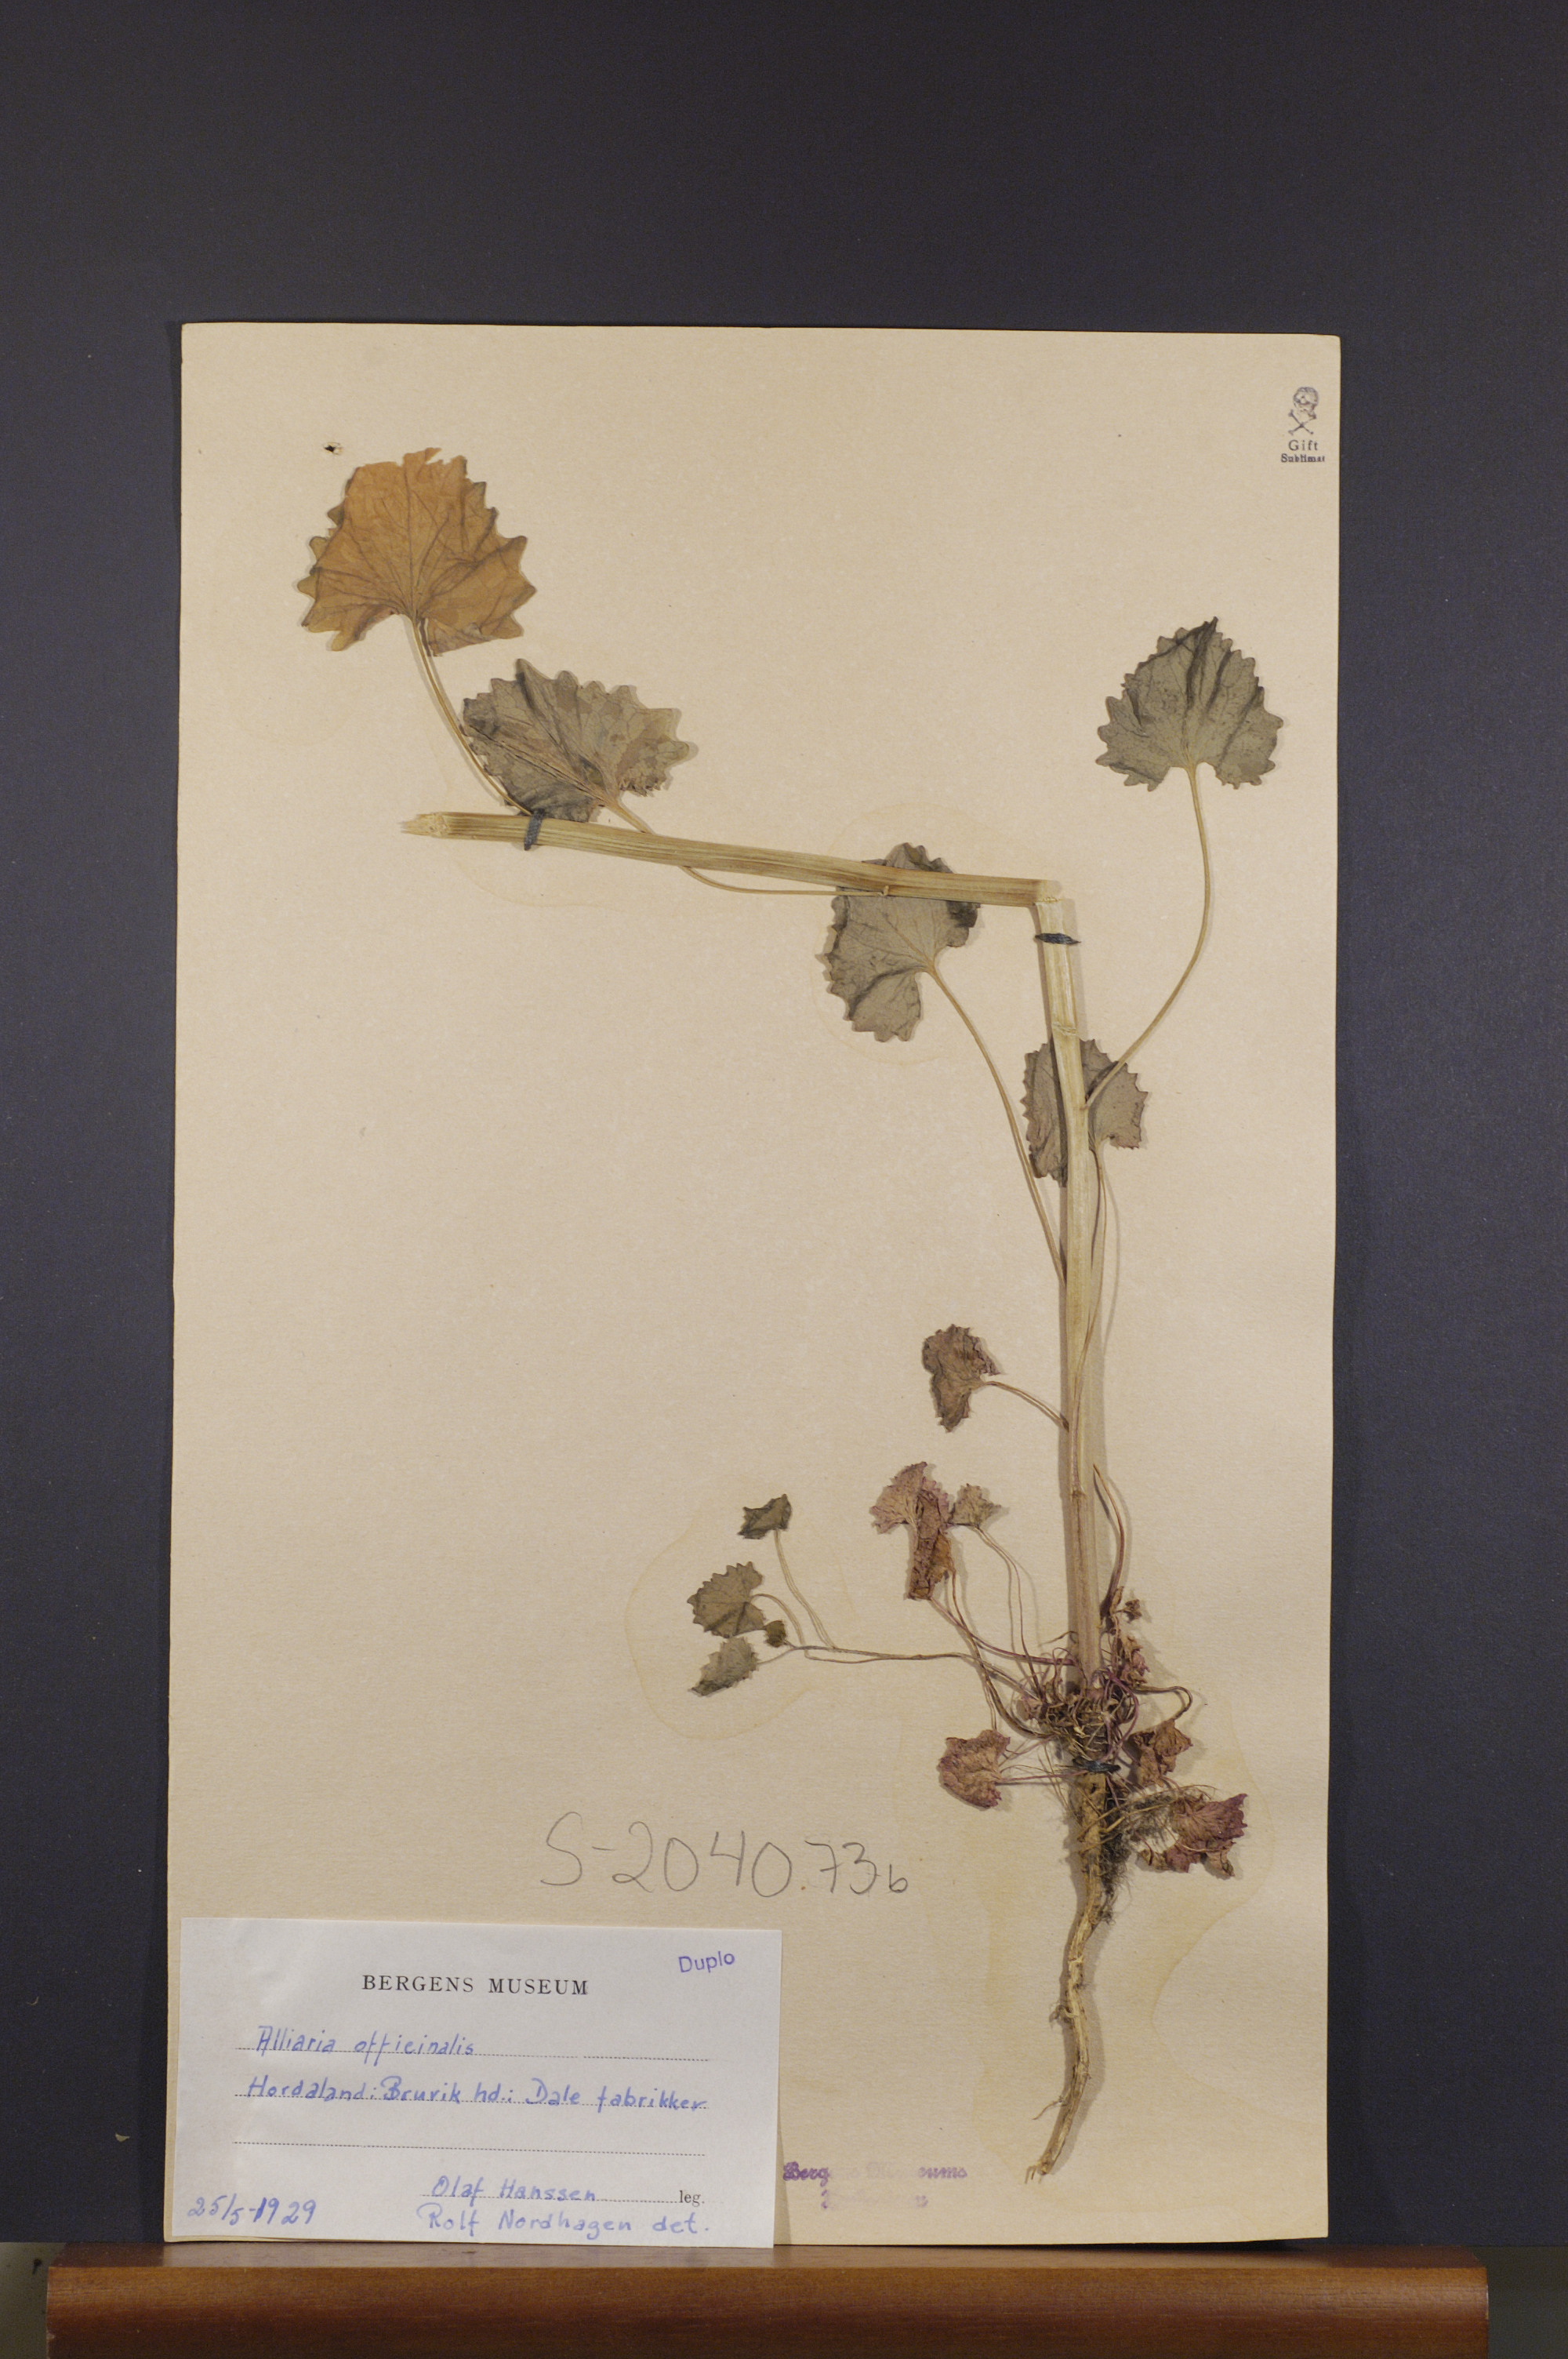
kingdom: Plantae
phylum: Tracheophyta
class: Magnoliopsida
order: Brassicales
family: Brassicaceae
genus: Alliaria
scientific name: Alliaria petiolata
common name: Garlic mustard
